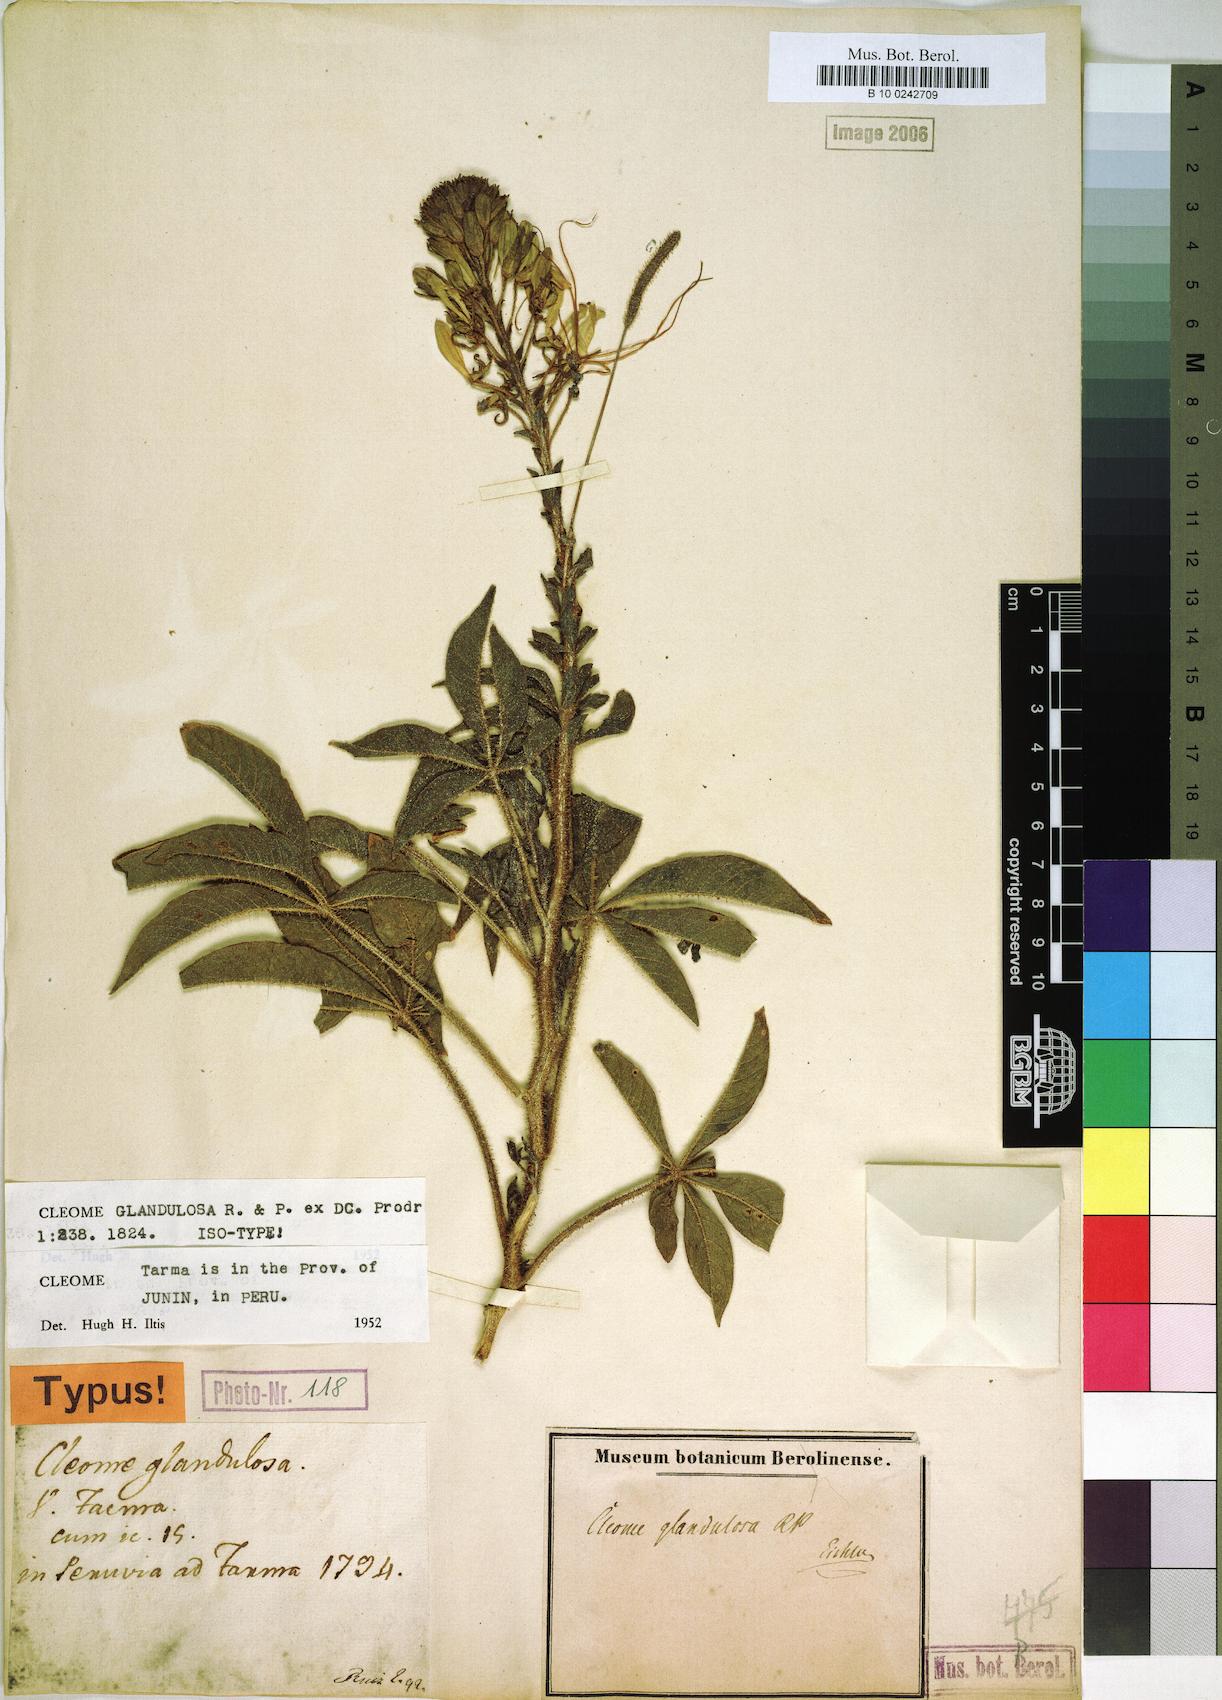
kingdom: Plantae
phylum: Tracheophyta
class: Magnoliopsida
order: Brassicales
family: Cleomaceae
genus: Andinocleome
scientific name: Andinocleome glandulosa
